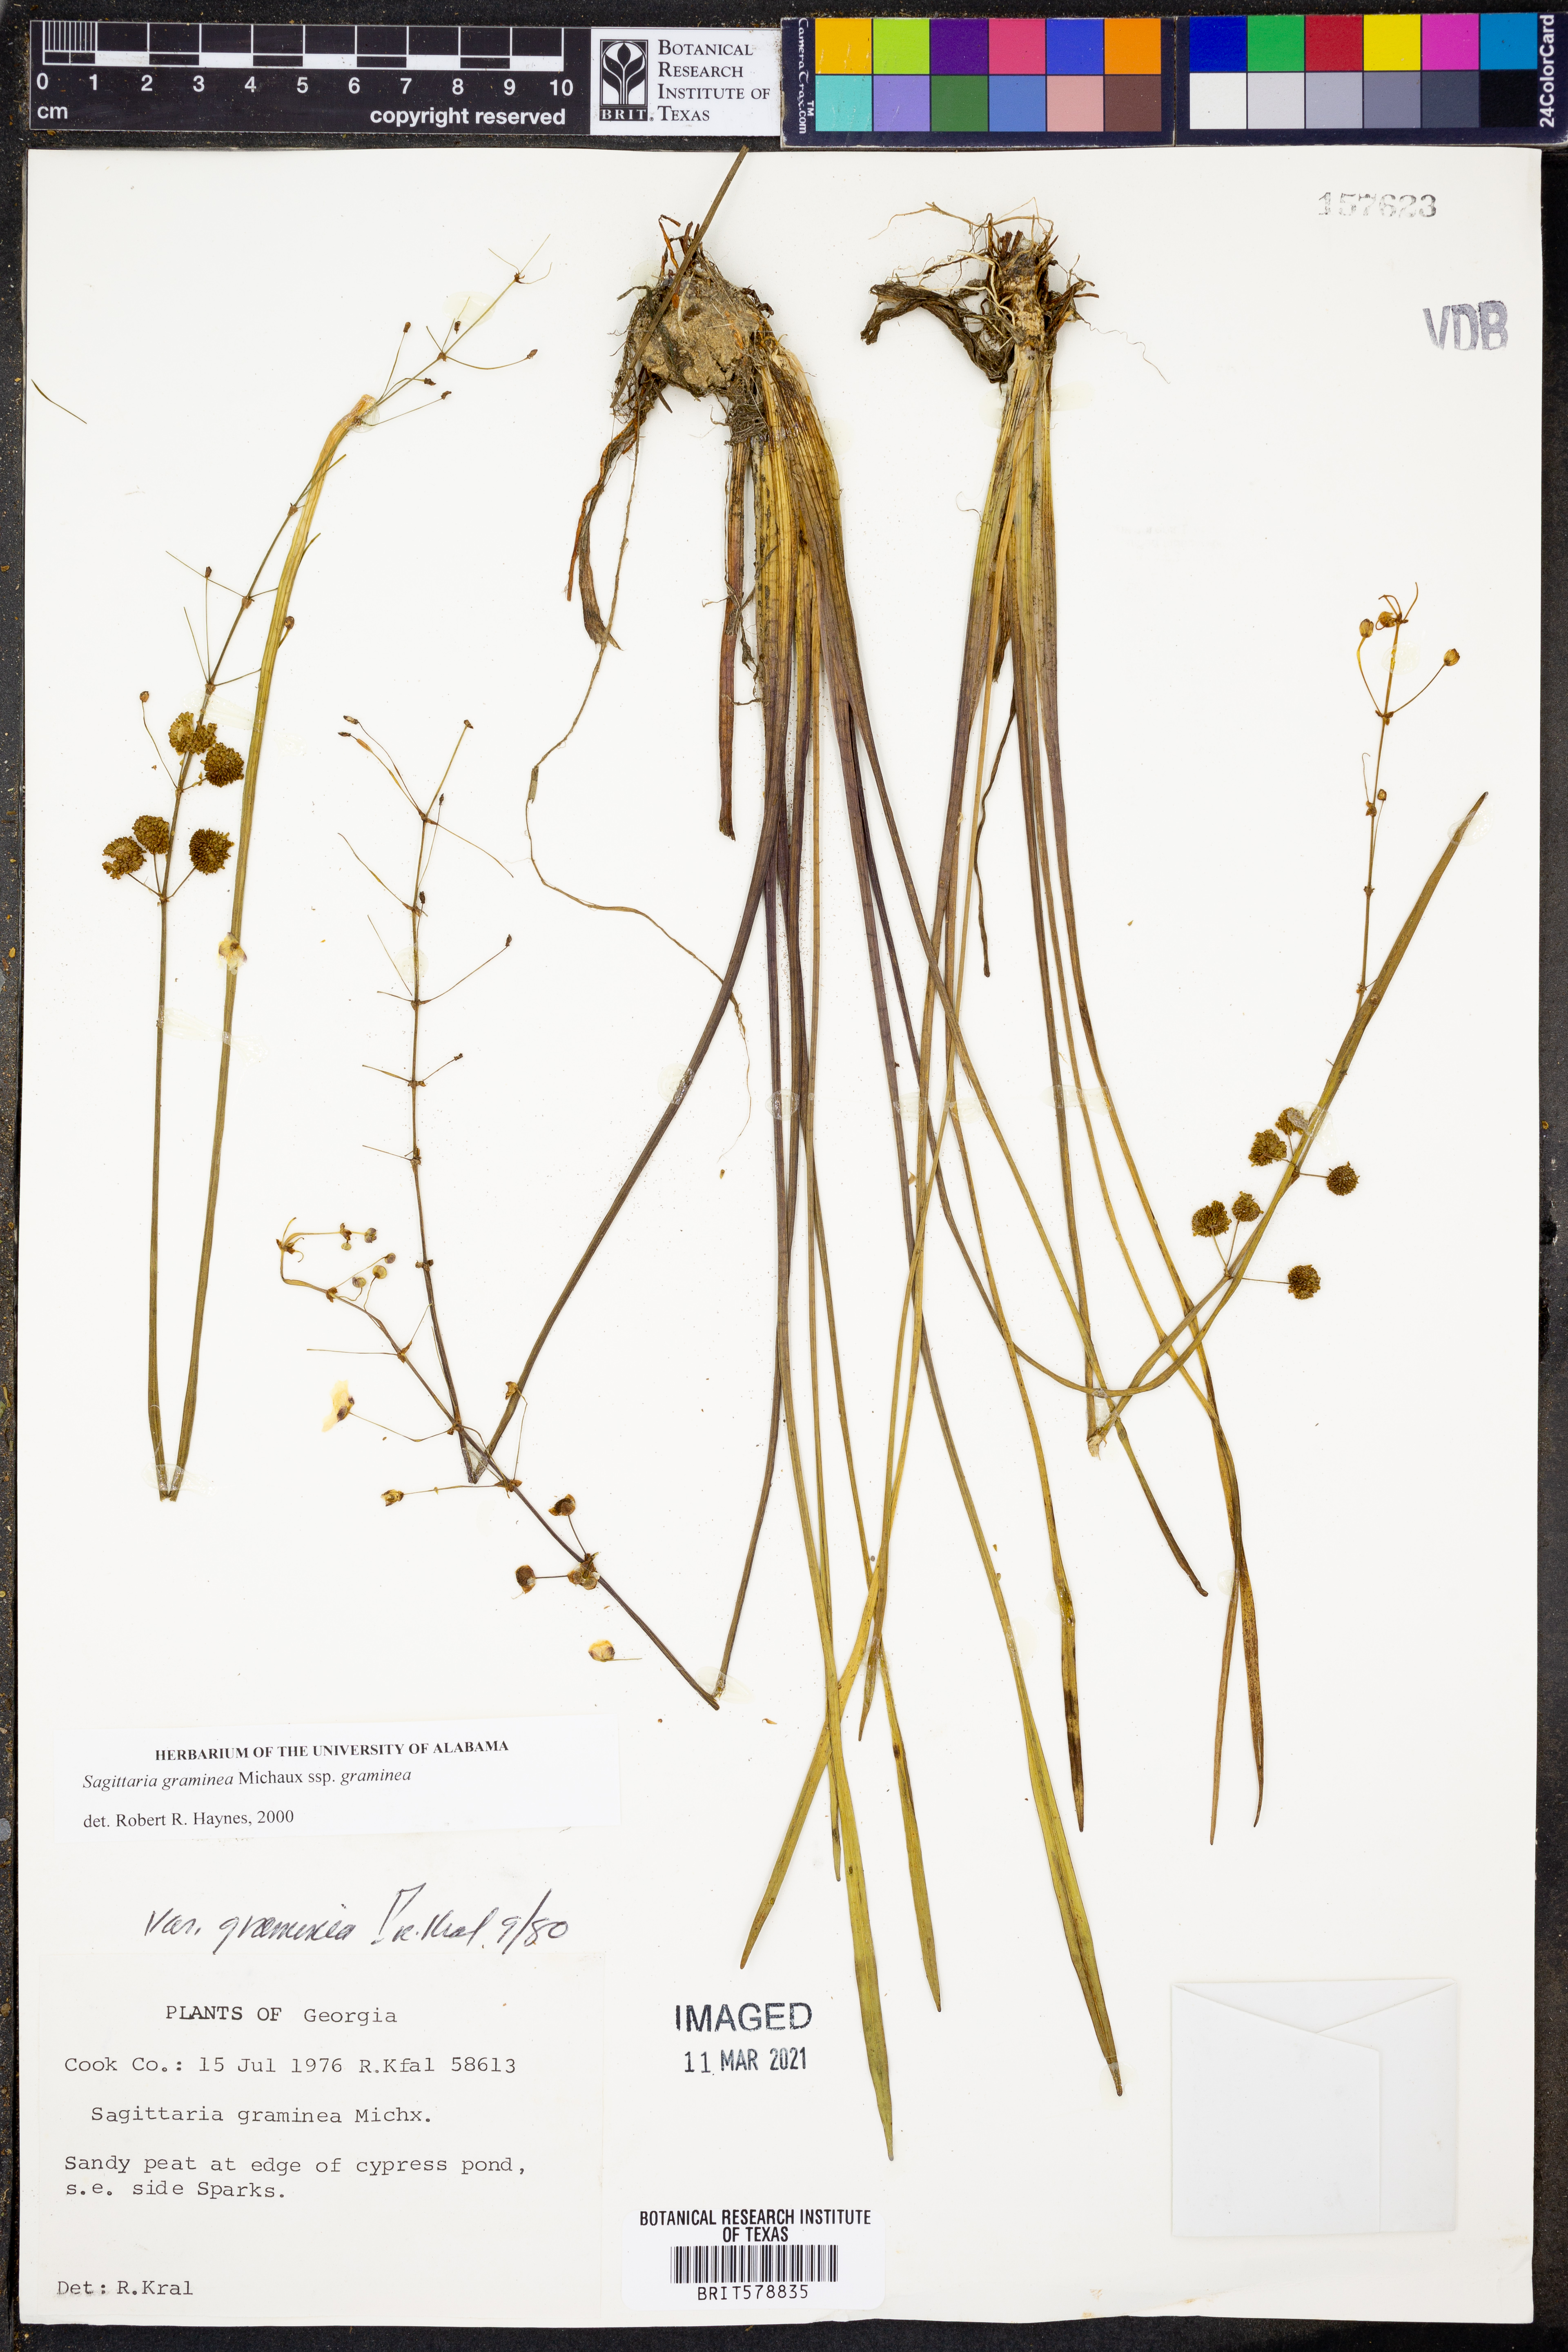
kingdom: Plantae
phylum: Tracheophyta
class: Liliopsida
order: Alismatales
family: Alismataceae
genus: Sagittaria
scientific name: Sagittaria graminea
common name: Grass-leaved arrowhead
